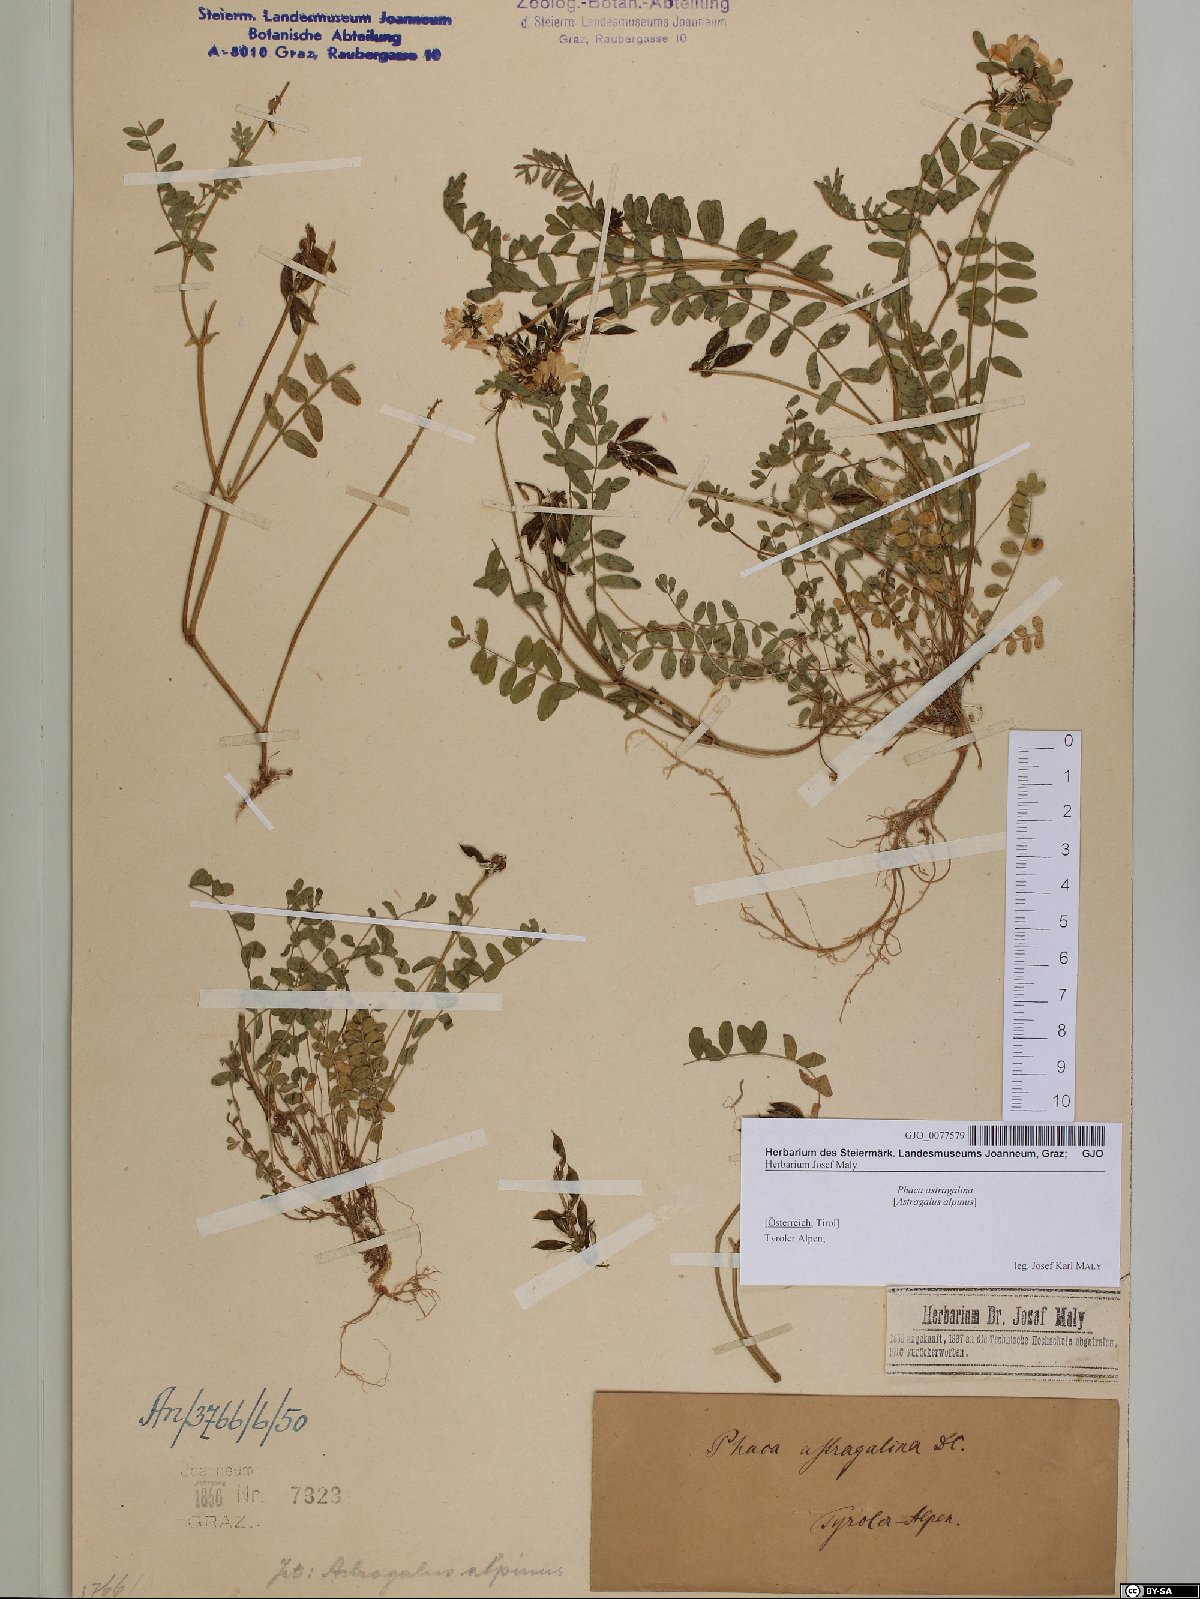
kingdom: Plantae
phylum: Tracheophyta
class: Magnoliopsida
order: Fabales
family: Fabaceae
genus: Astragalus
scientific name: Astragalus alpinus
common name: Alpine milk-vetch
